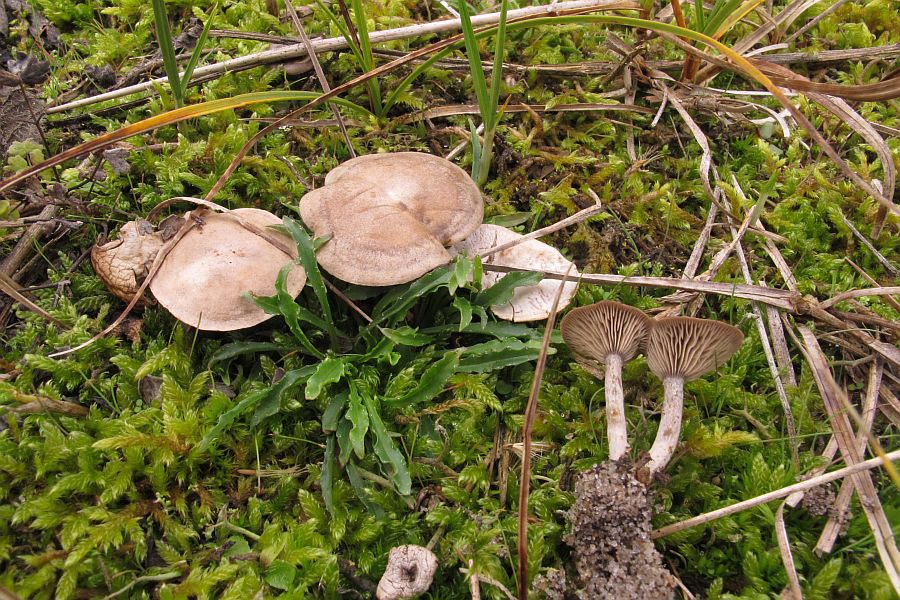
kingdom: Fungi
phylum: Basidiomycota
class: Agaricomycetes
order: Agaricales
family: Tricholomataceae
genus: Lulesia
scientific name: Lulesia
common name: sortnende troldhat
